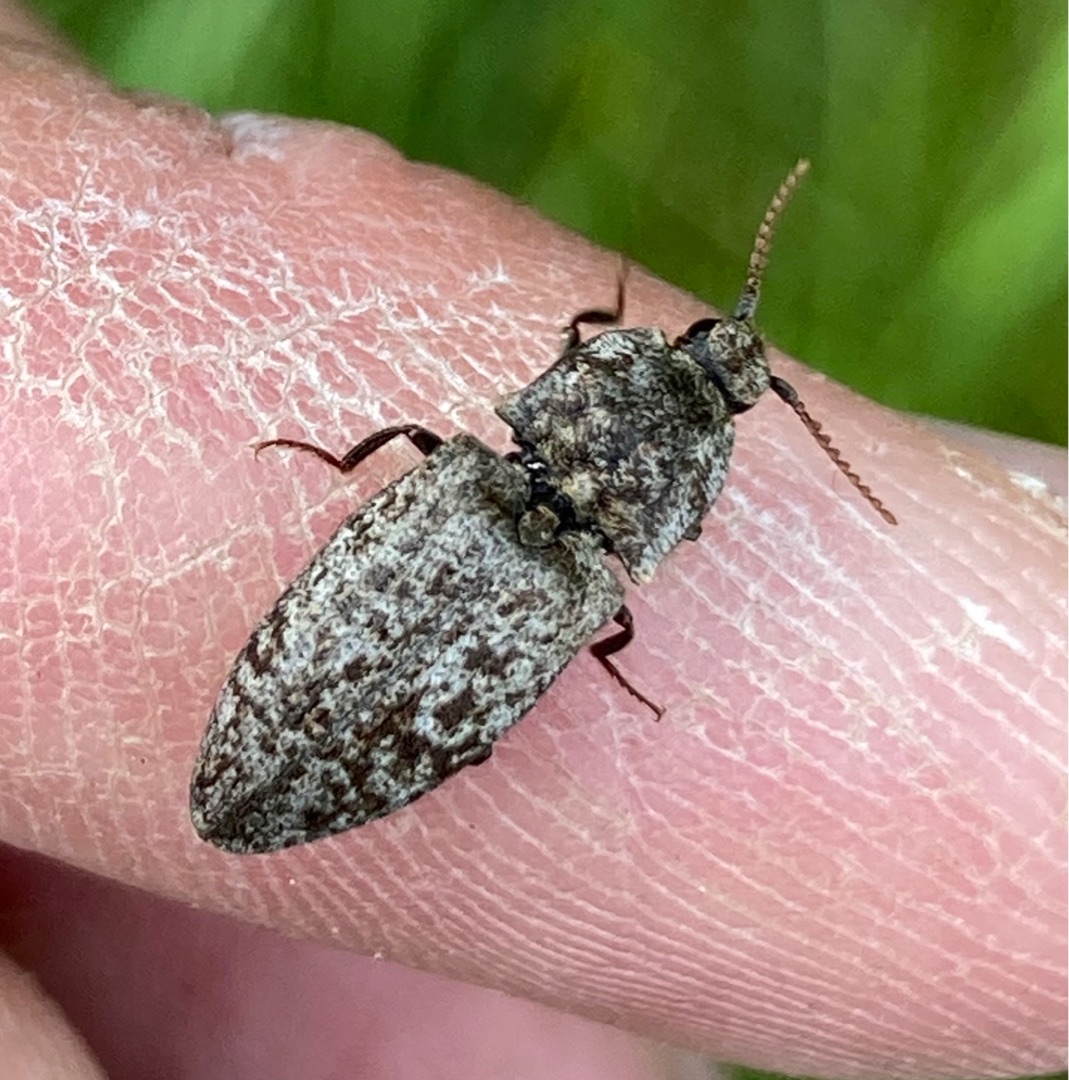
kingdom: Animalia
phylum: Arthropoda
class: Insecta
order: Coleoptera
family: Elateridae
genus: Agrypnus
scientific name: Agrypnus murinus
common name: Musegrå smælder
